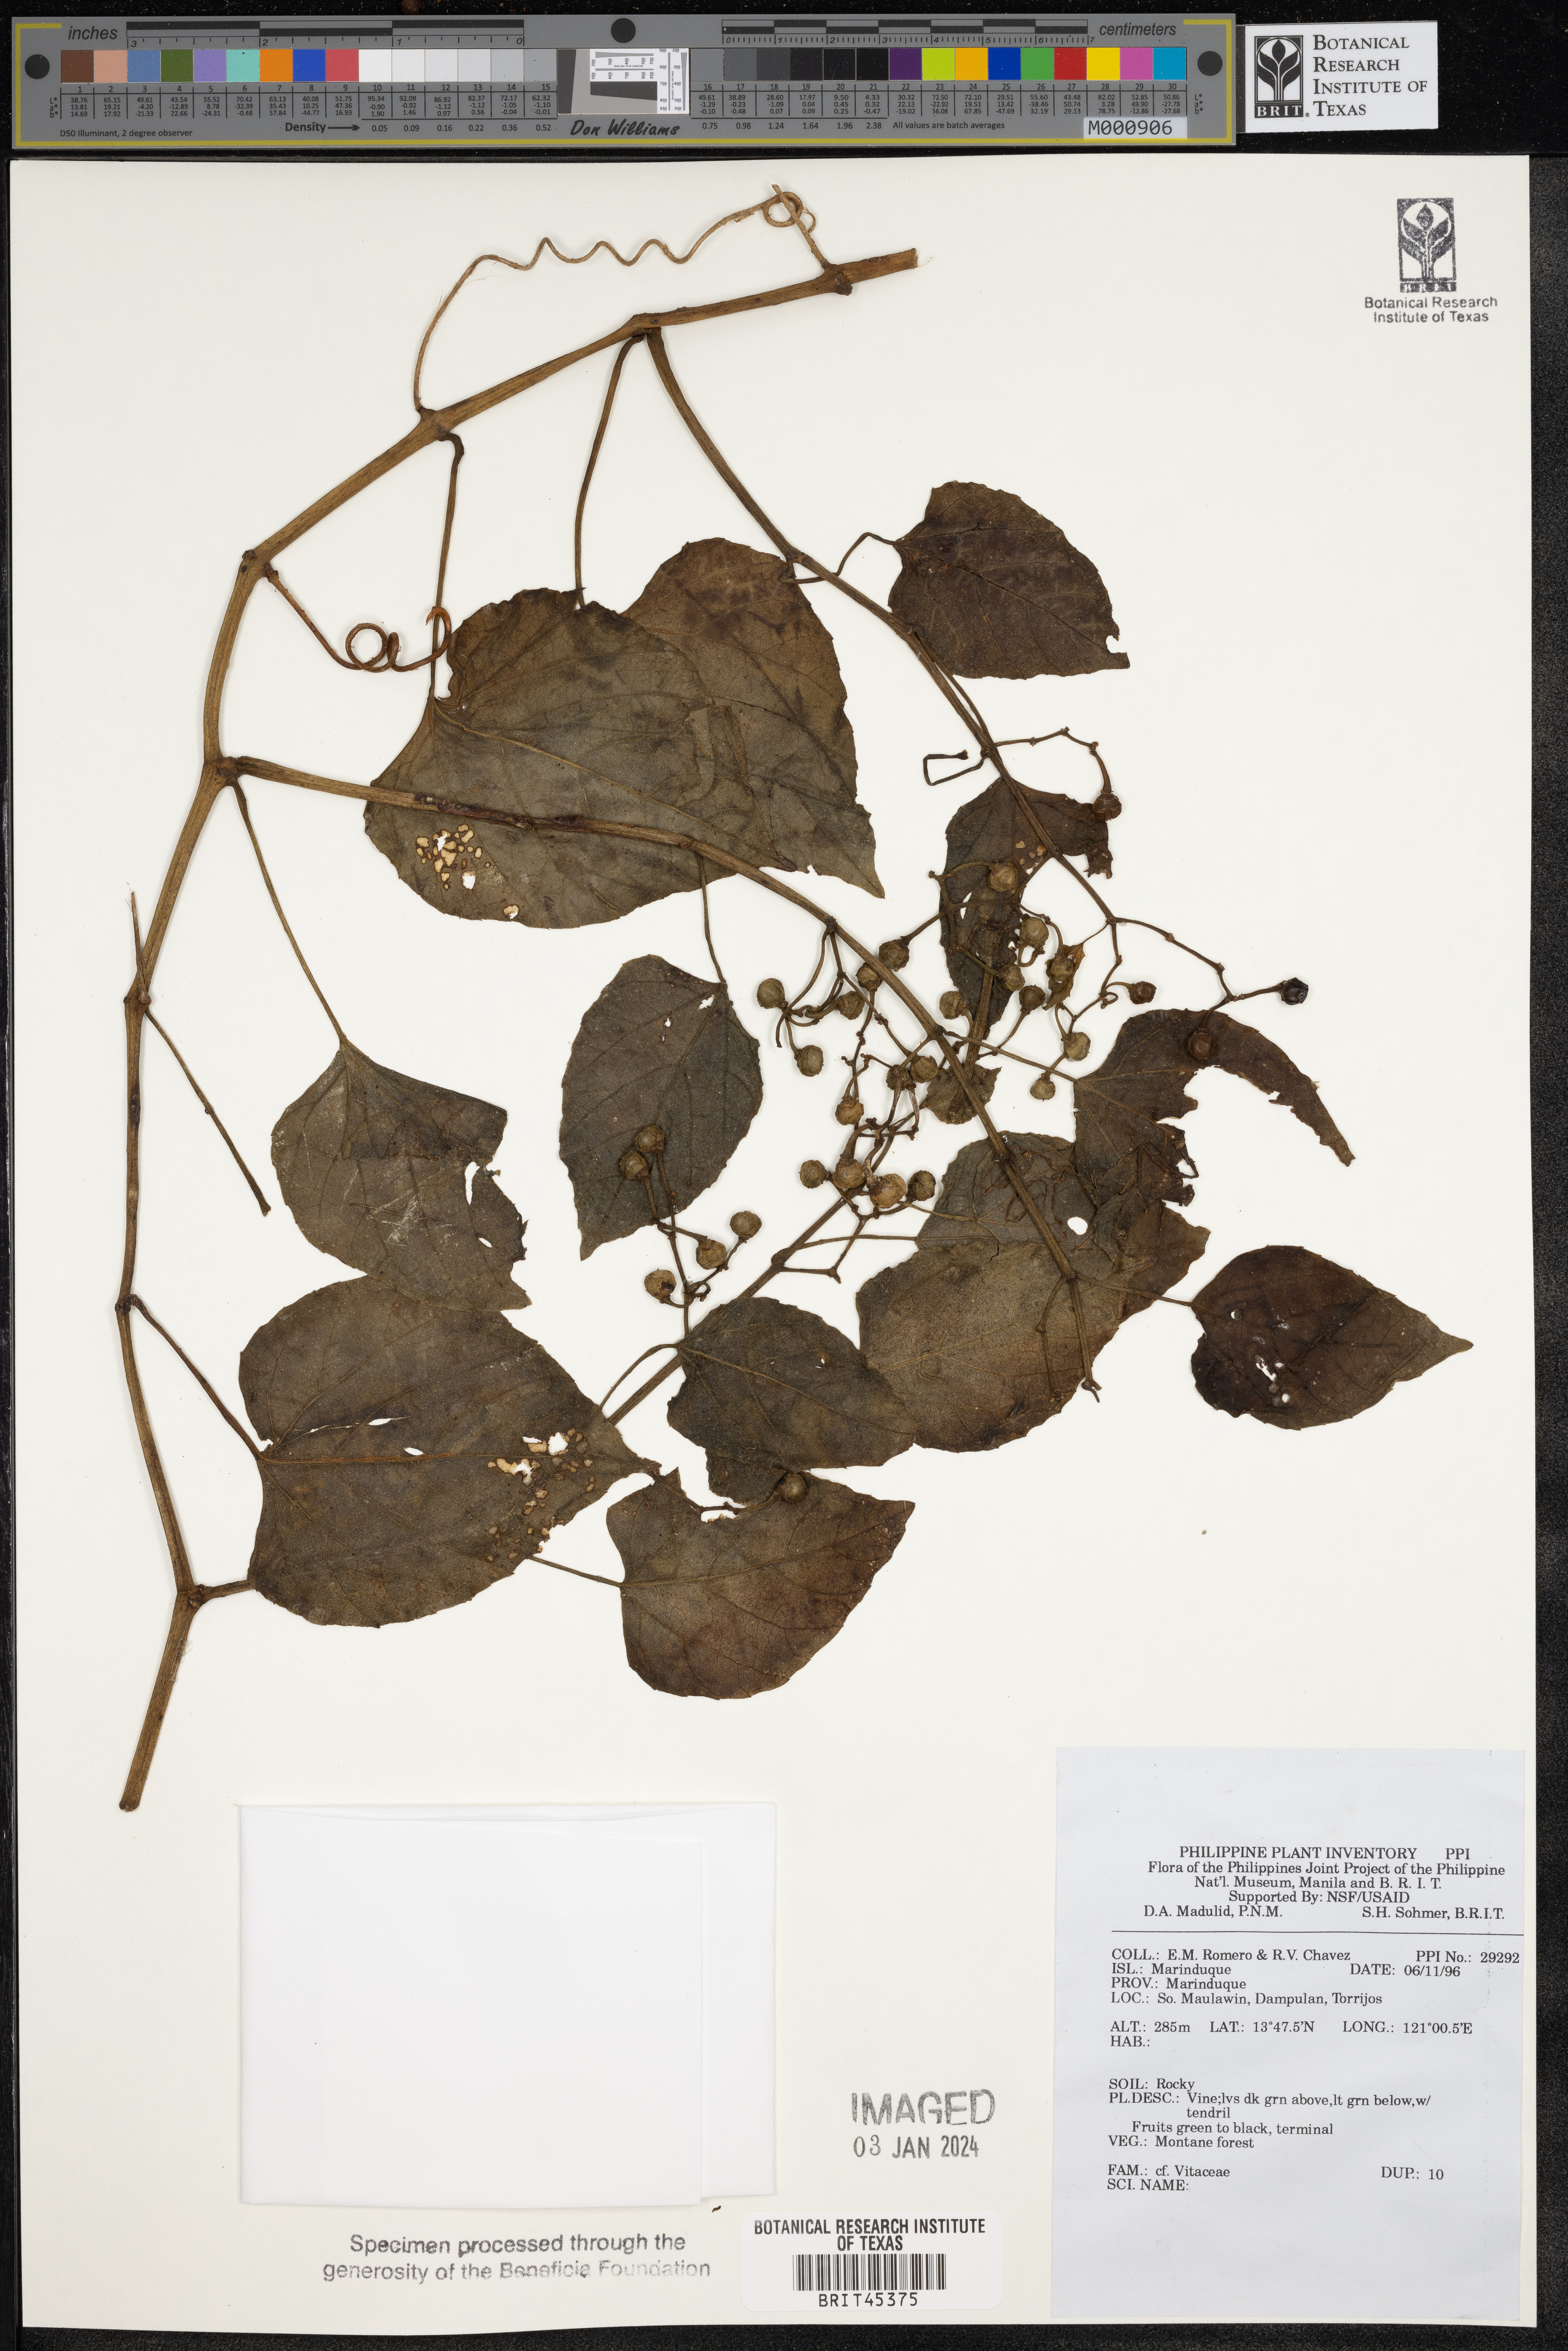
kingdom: Plantae
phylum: Tracheophyta
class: Magnoliopsida
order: Vitales
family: Vitaceae
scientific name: Vitaceae
